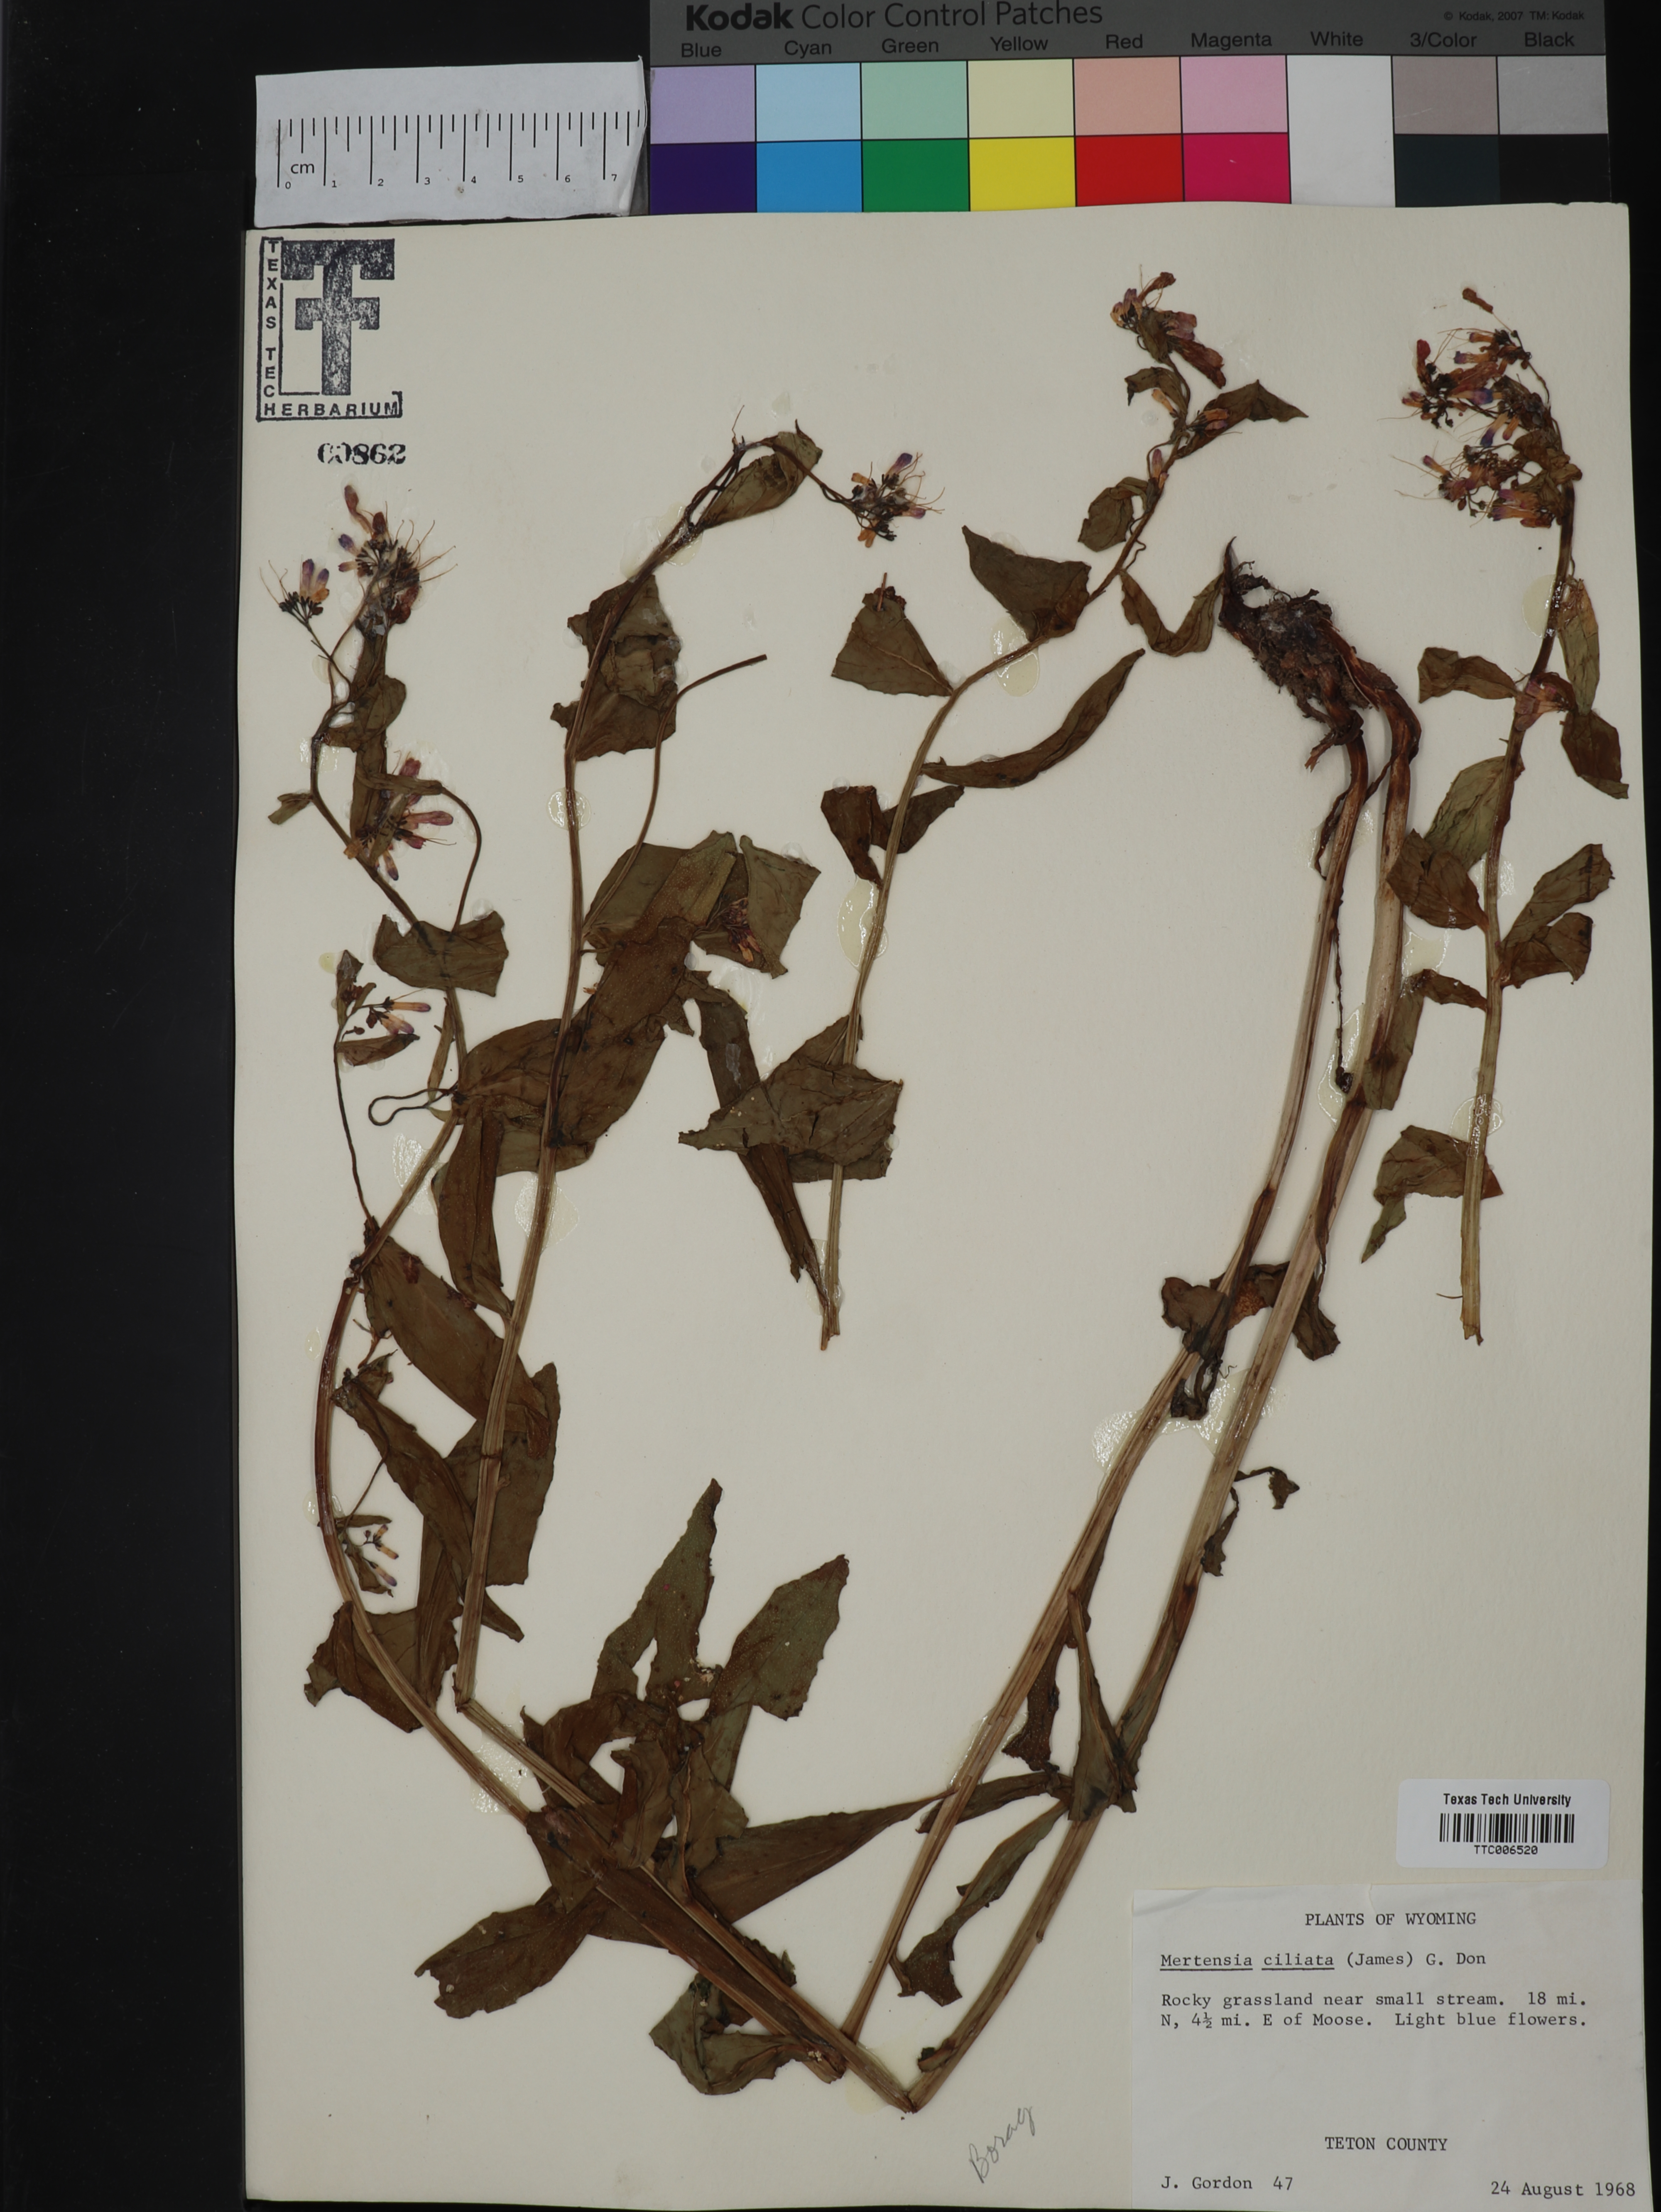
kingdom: Plantae
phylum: Tracheophyta
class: Magnoliopsida
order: Boraginales
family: Boraginaceae
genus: Mertensia
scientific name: Mertensia ciliata
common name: Tall chiming-bells
